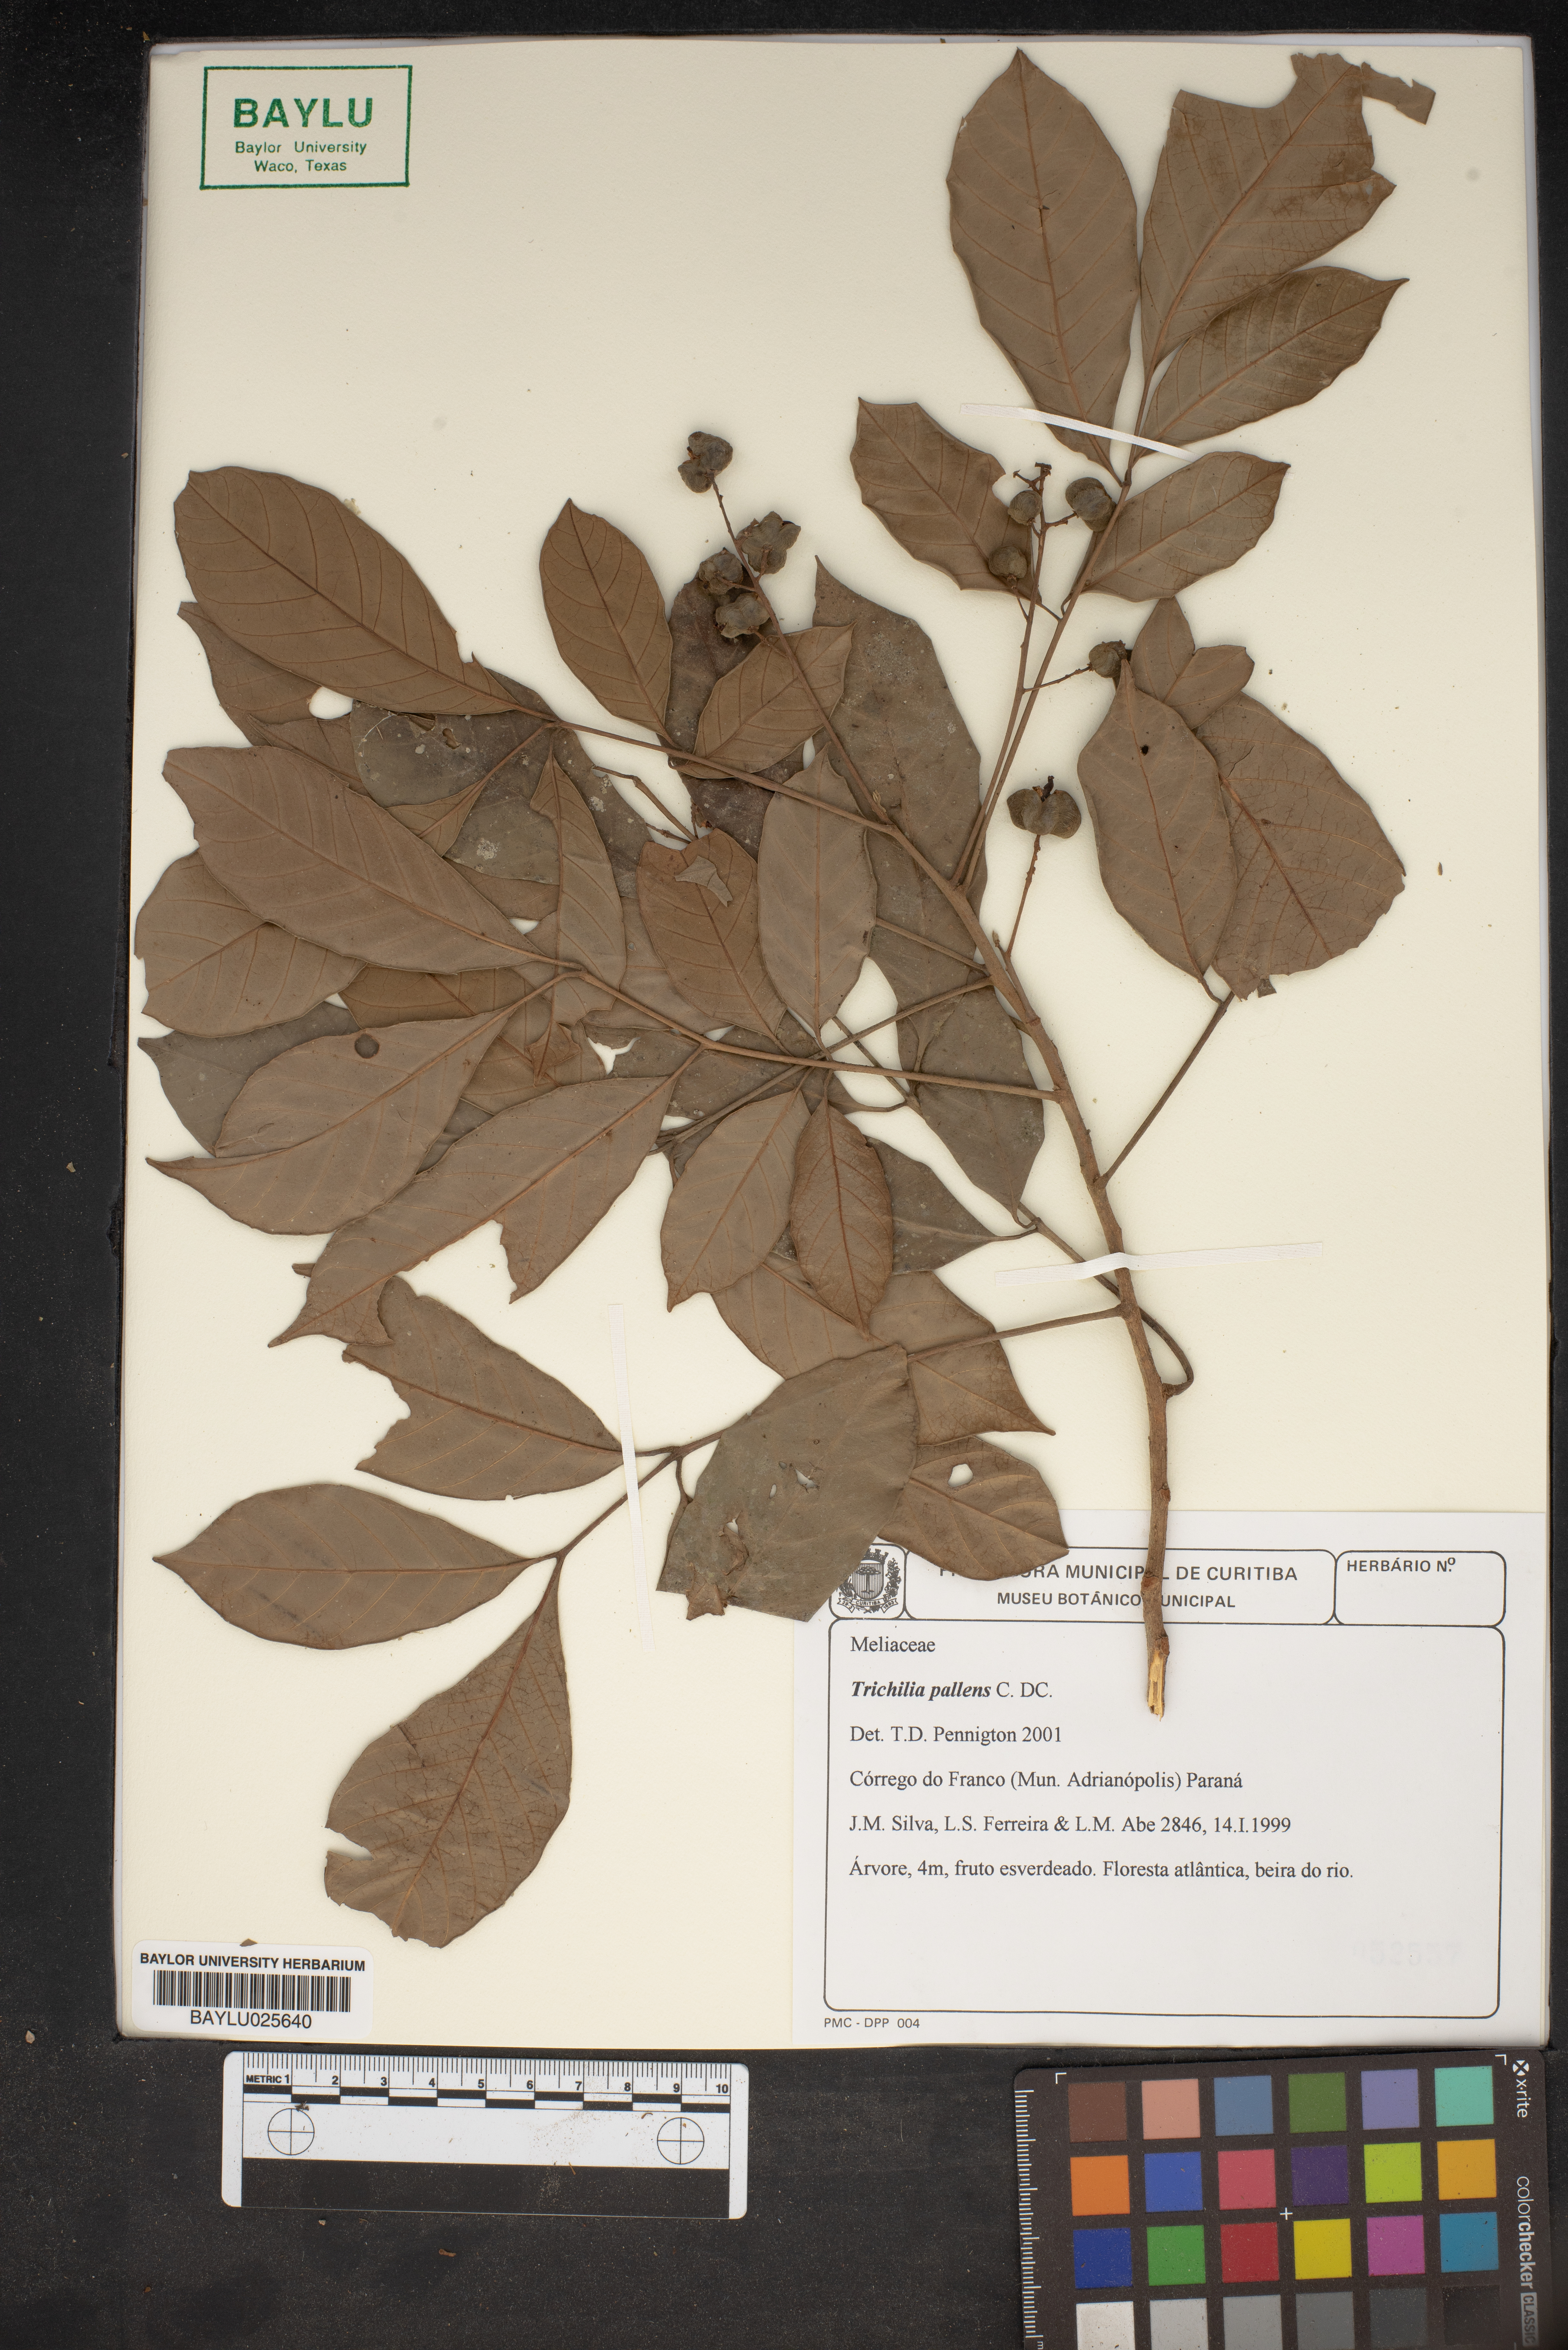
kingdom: Plantae
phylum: Tracheophyta
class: Magnoliopsida
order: Sapindales
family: Meliaceae
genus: Trichilia
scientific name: Trichilia pallens
